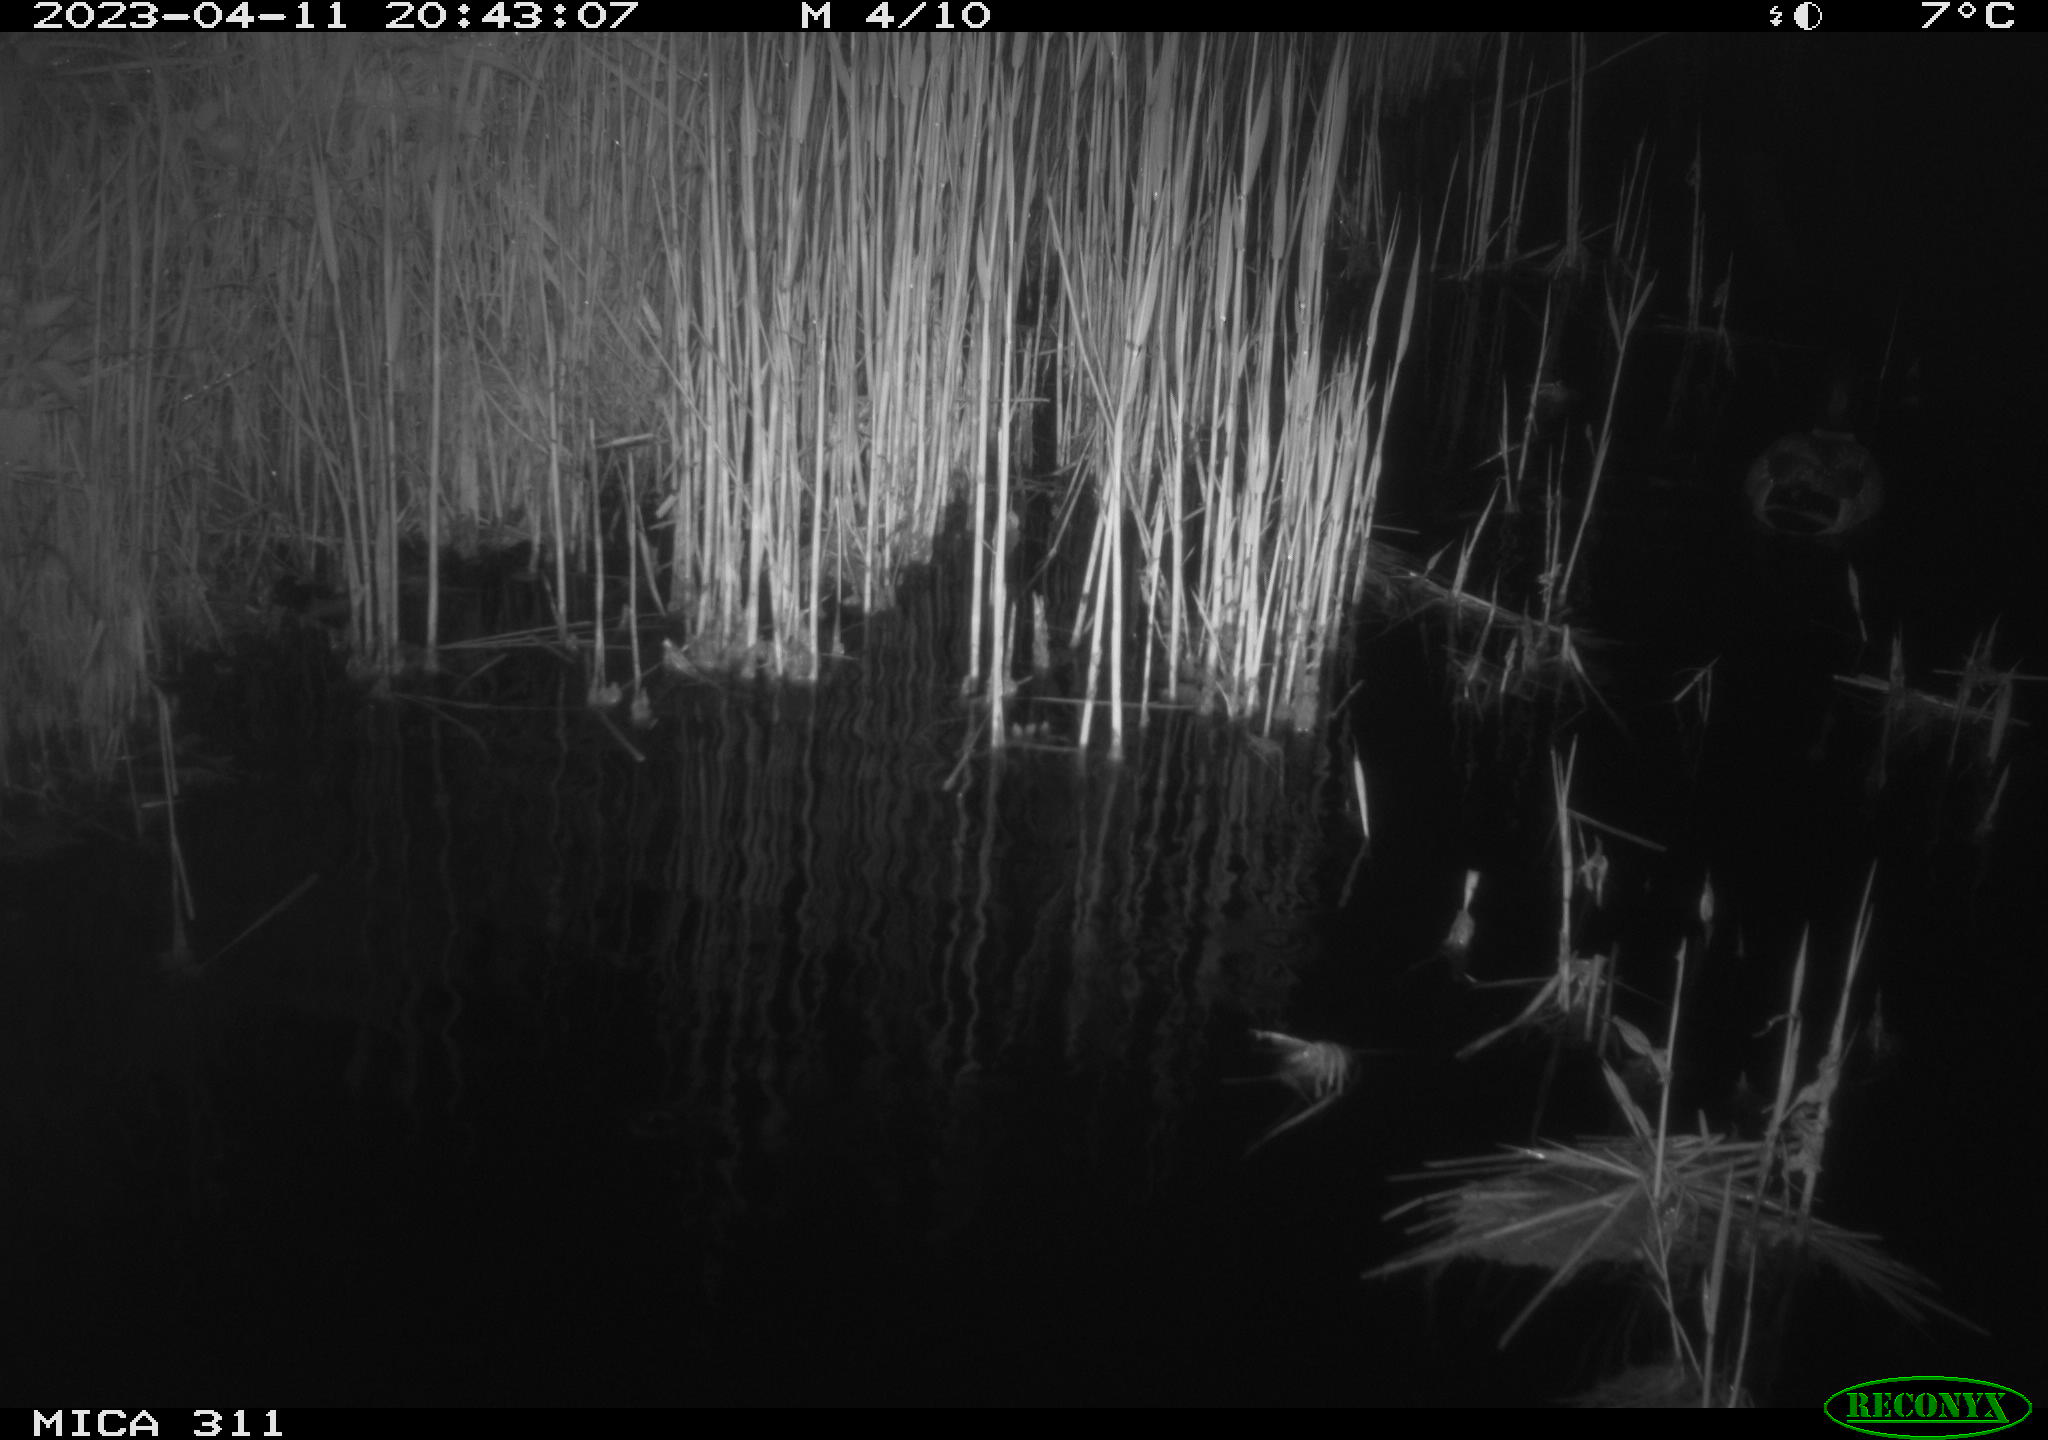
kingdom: Animalia
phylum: Chordata
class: Aves
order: Anseriformes
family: Anatidae
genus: Anas
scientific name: Anas
